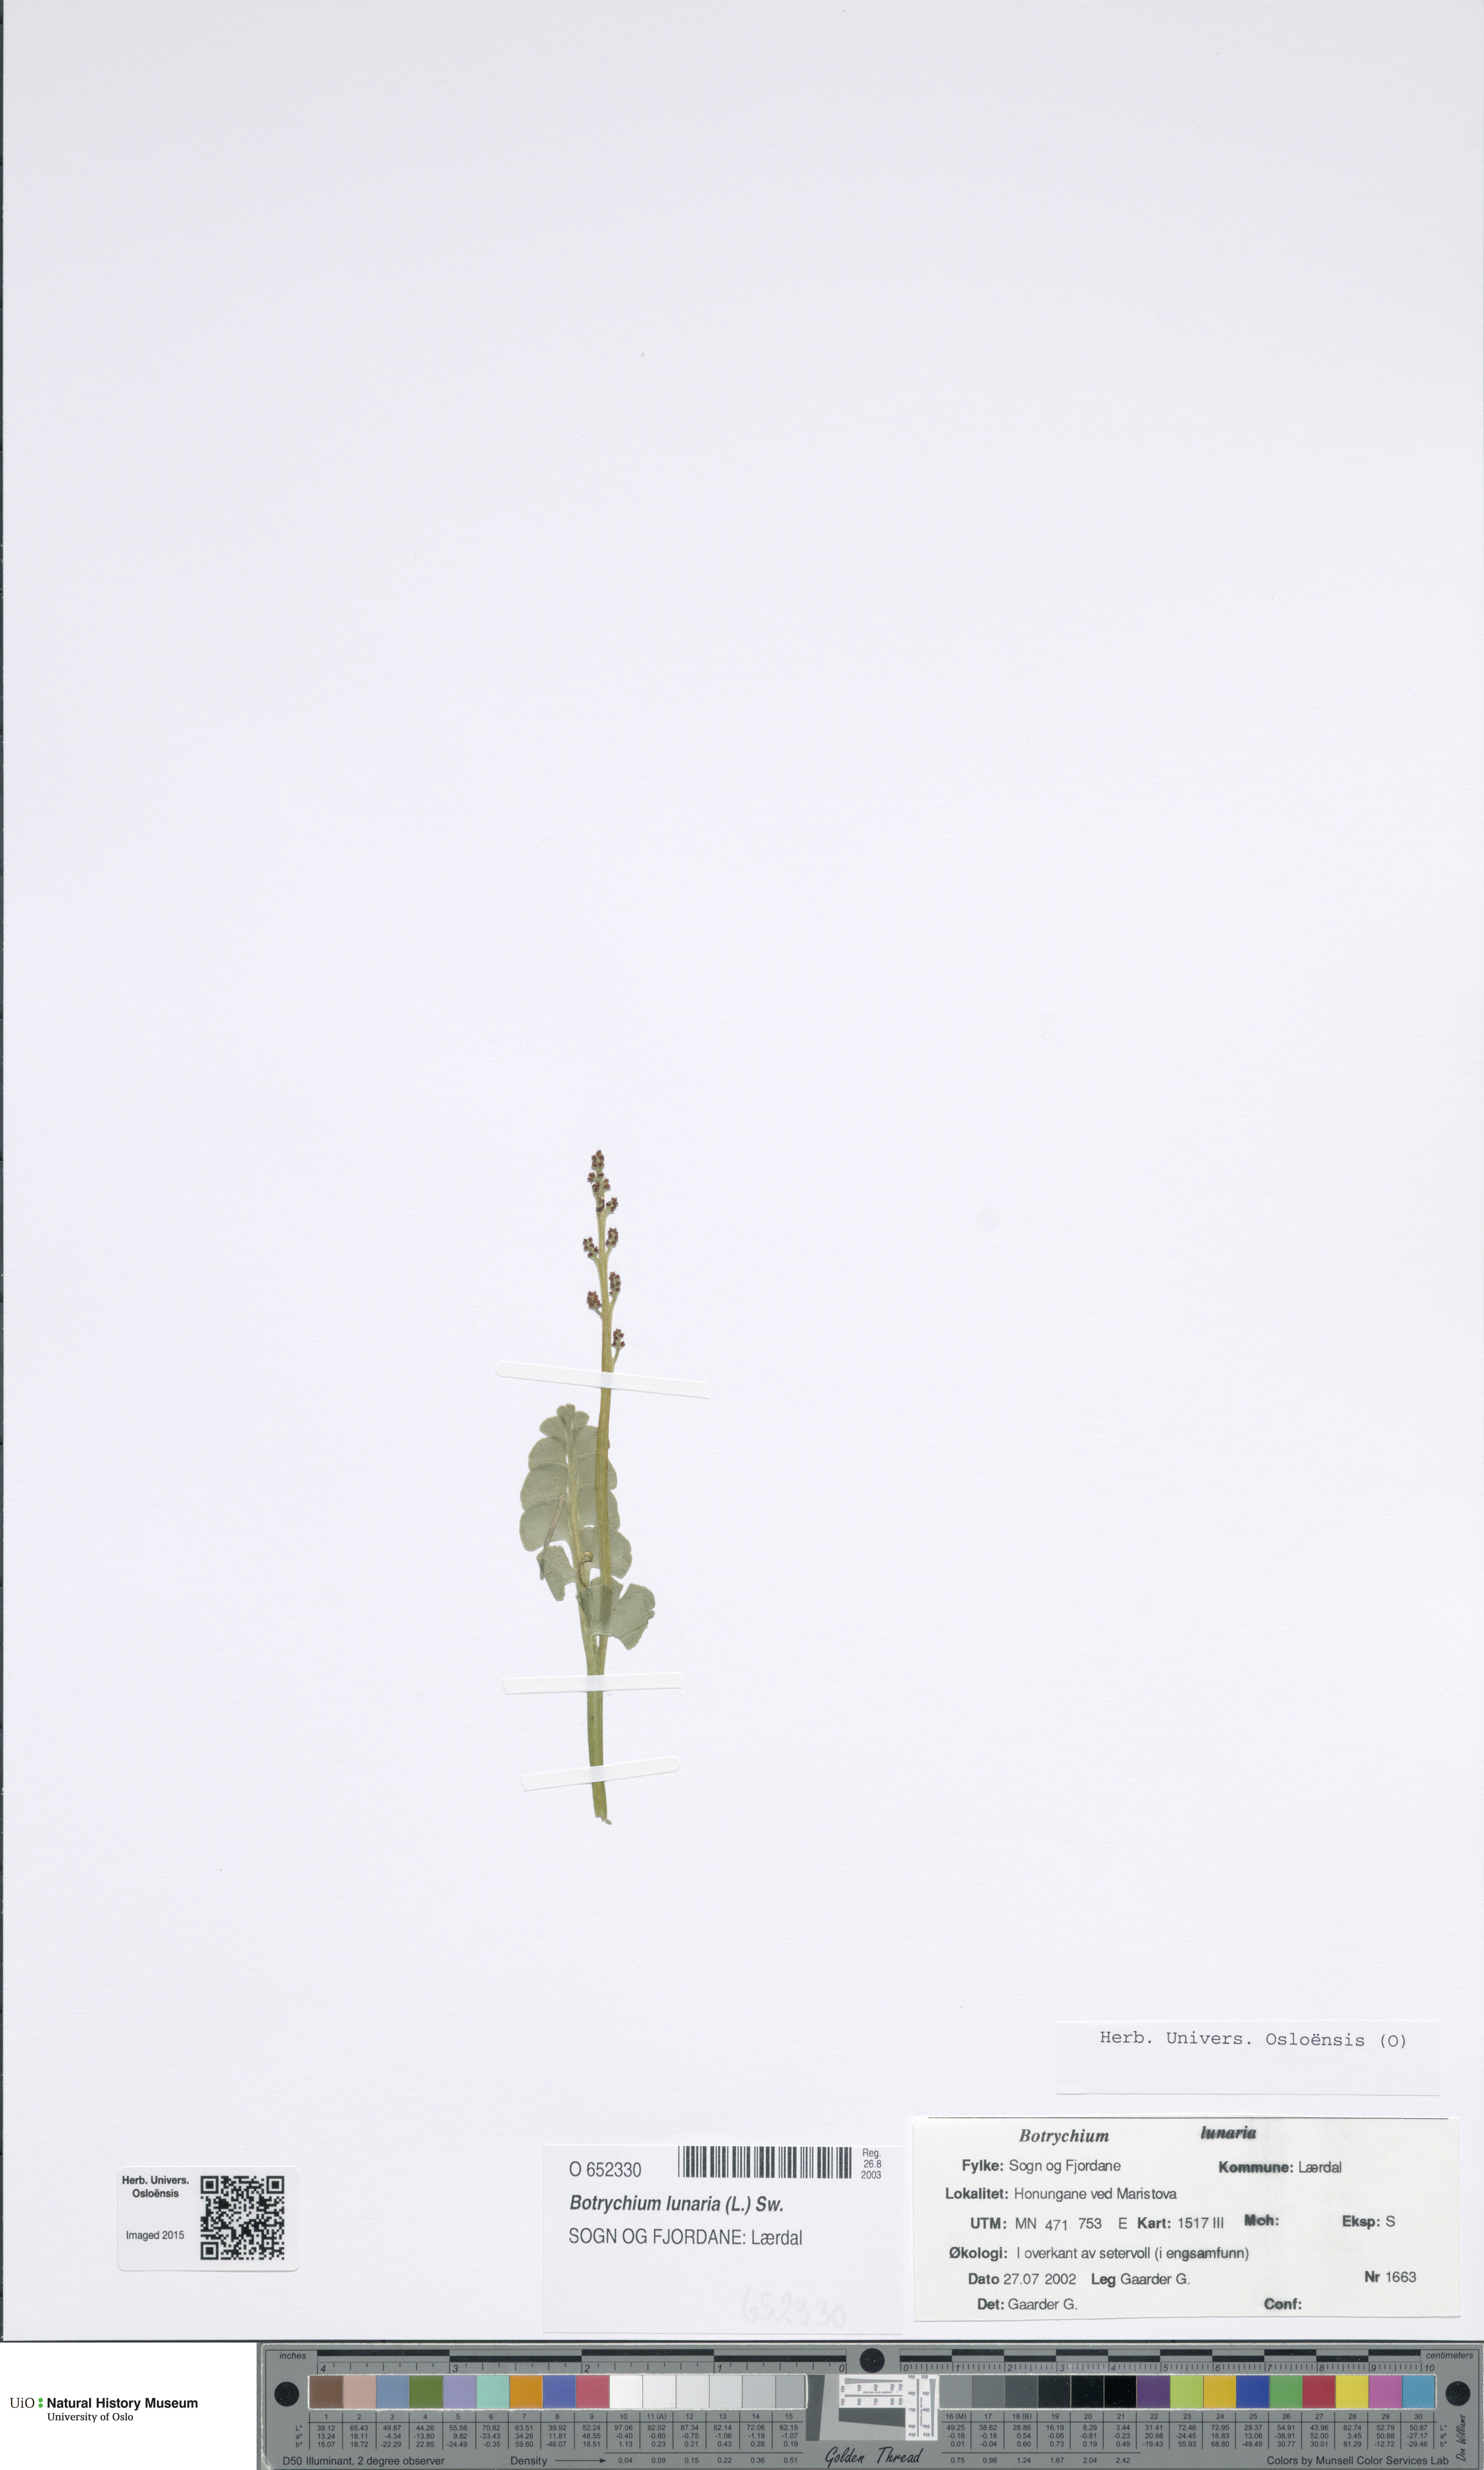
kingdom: Plantae
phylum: Tracheophyta
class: Polypodiopsida
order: Ophioglossales
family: Ophioglossaceae
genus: Botrychium
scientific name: Botrychium lunaria
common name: Moonwort
